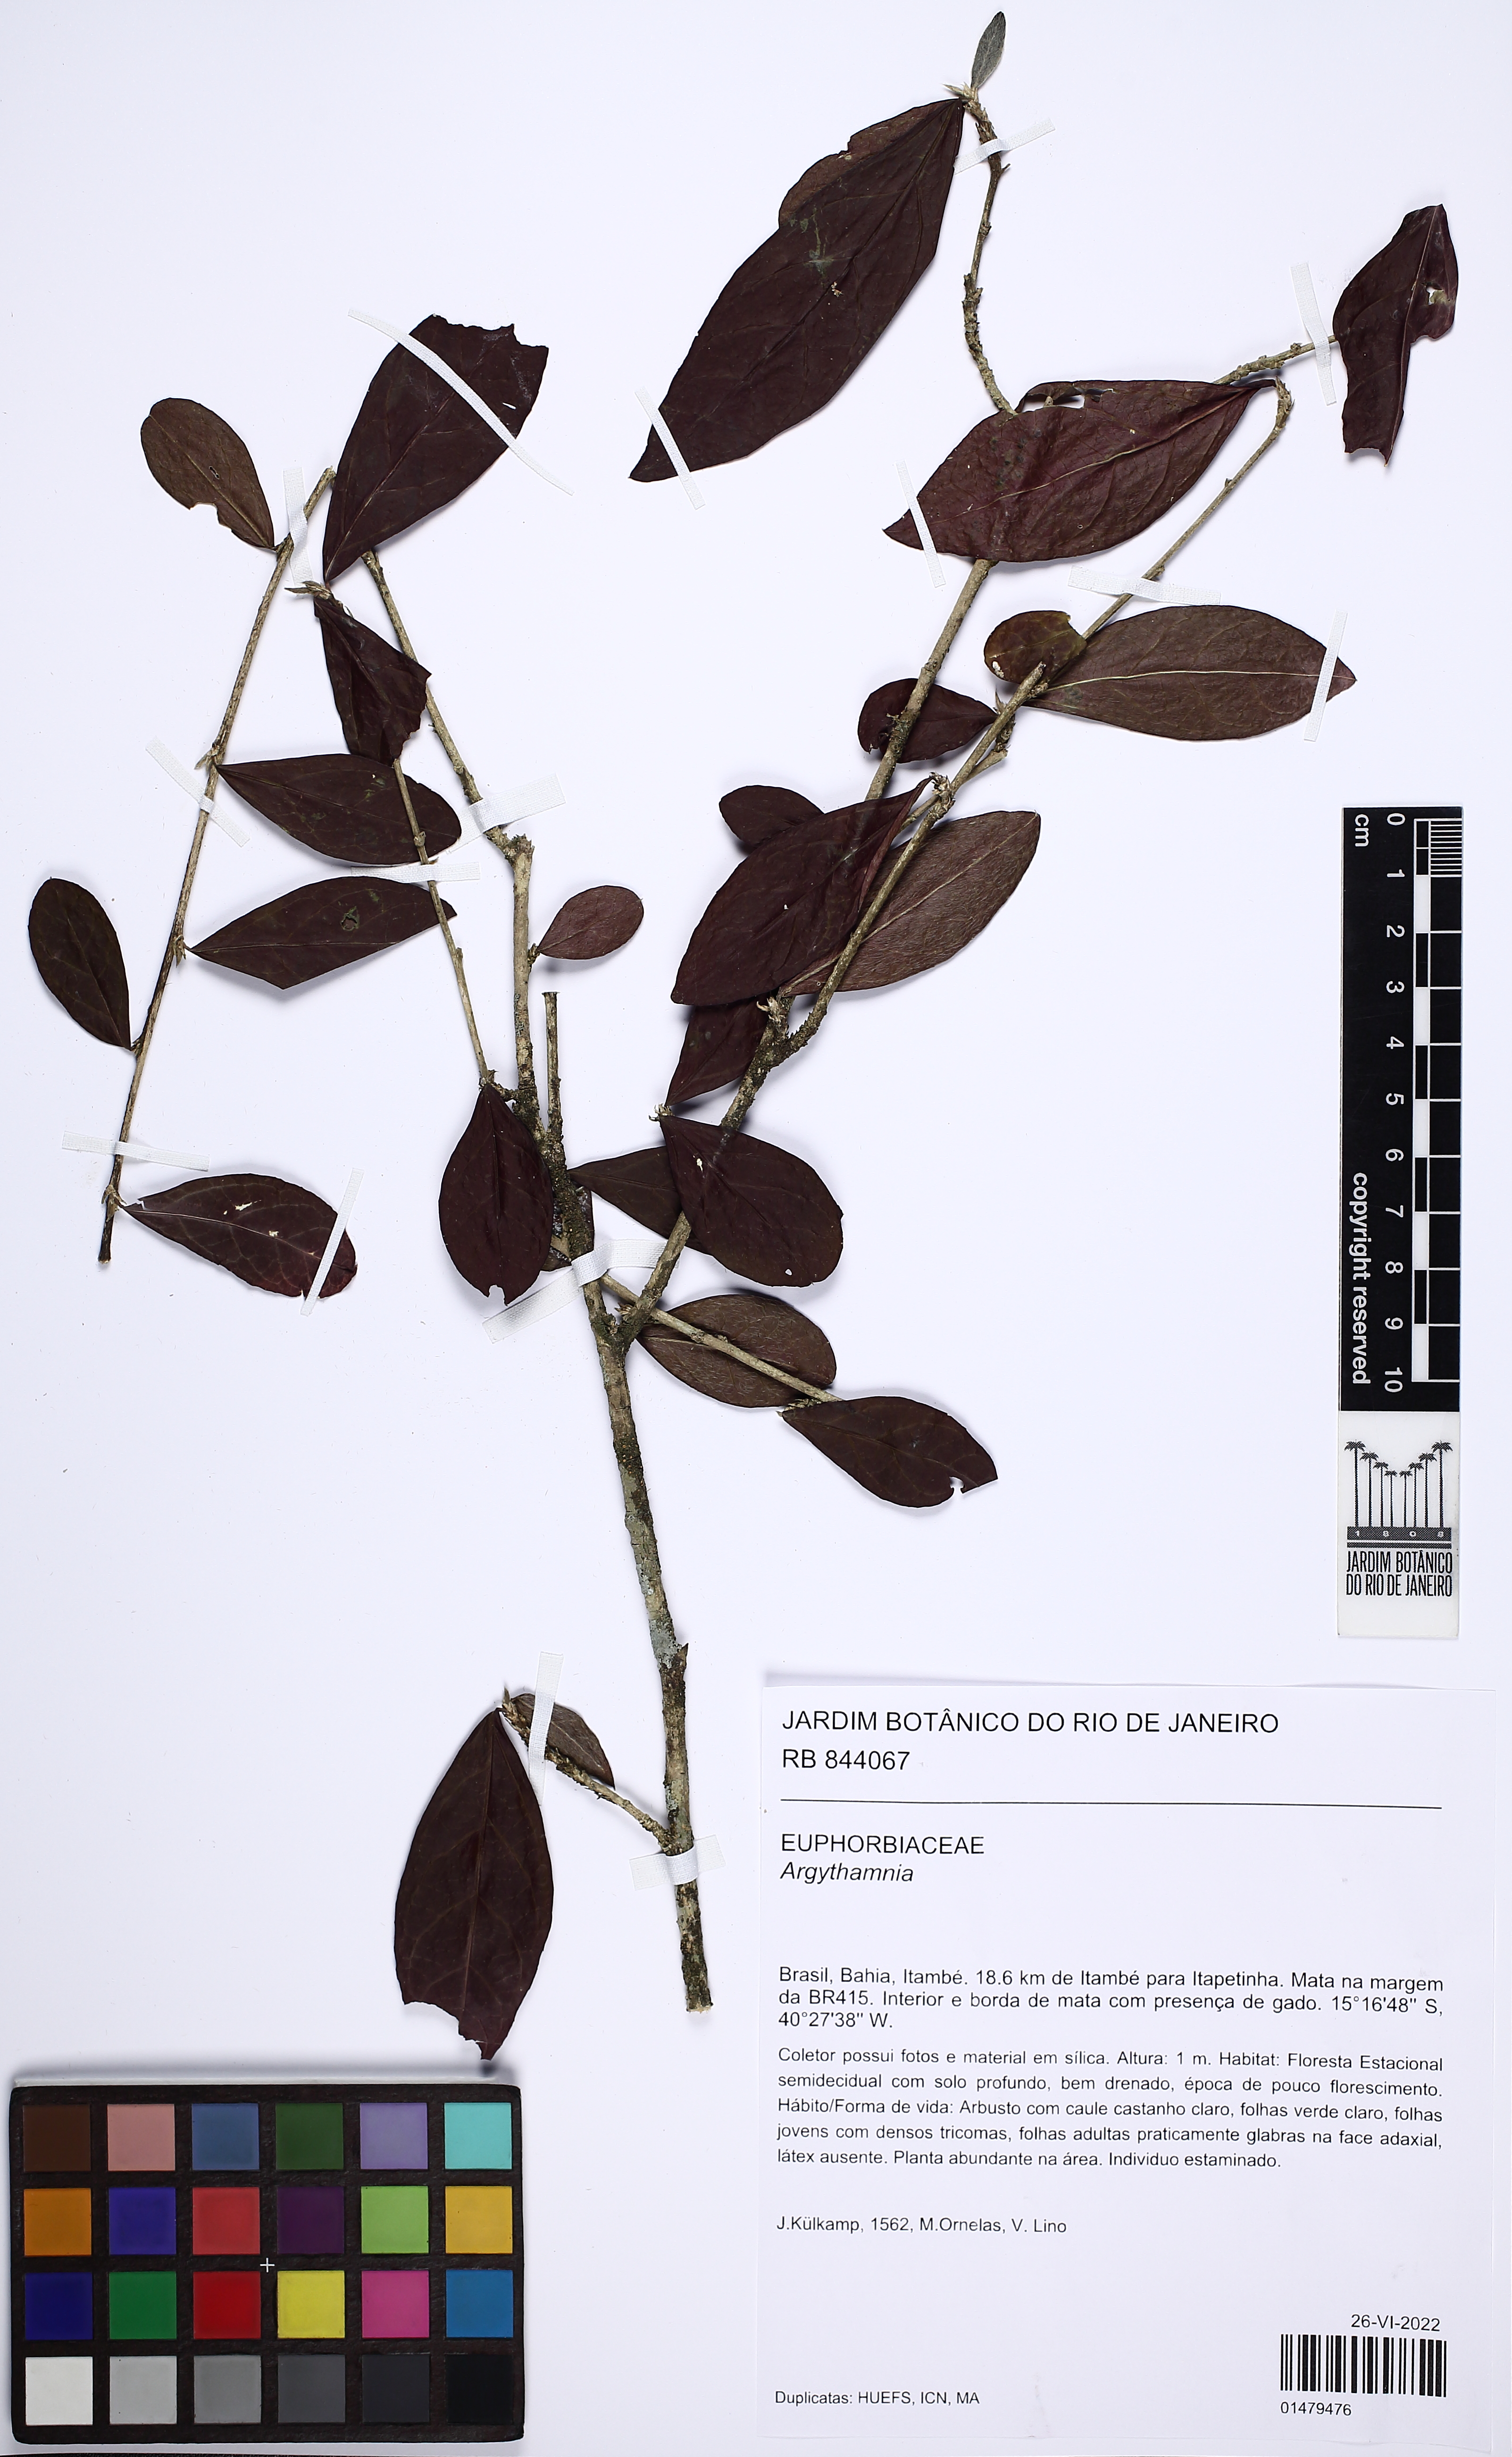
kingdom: Plantae
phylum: Tracheophyta
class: Magnoliopsida
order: Malpighiales
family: Euphorbiaceae
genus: Argythamnia
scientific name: Argythamnia
